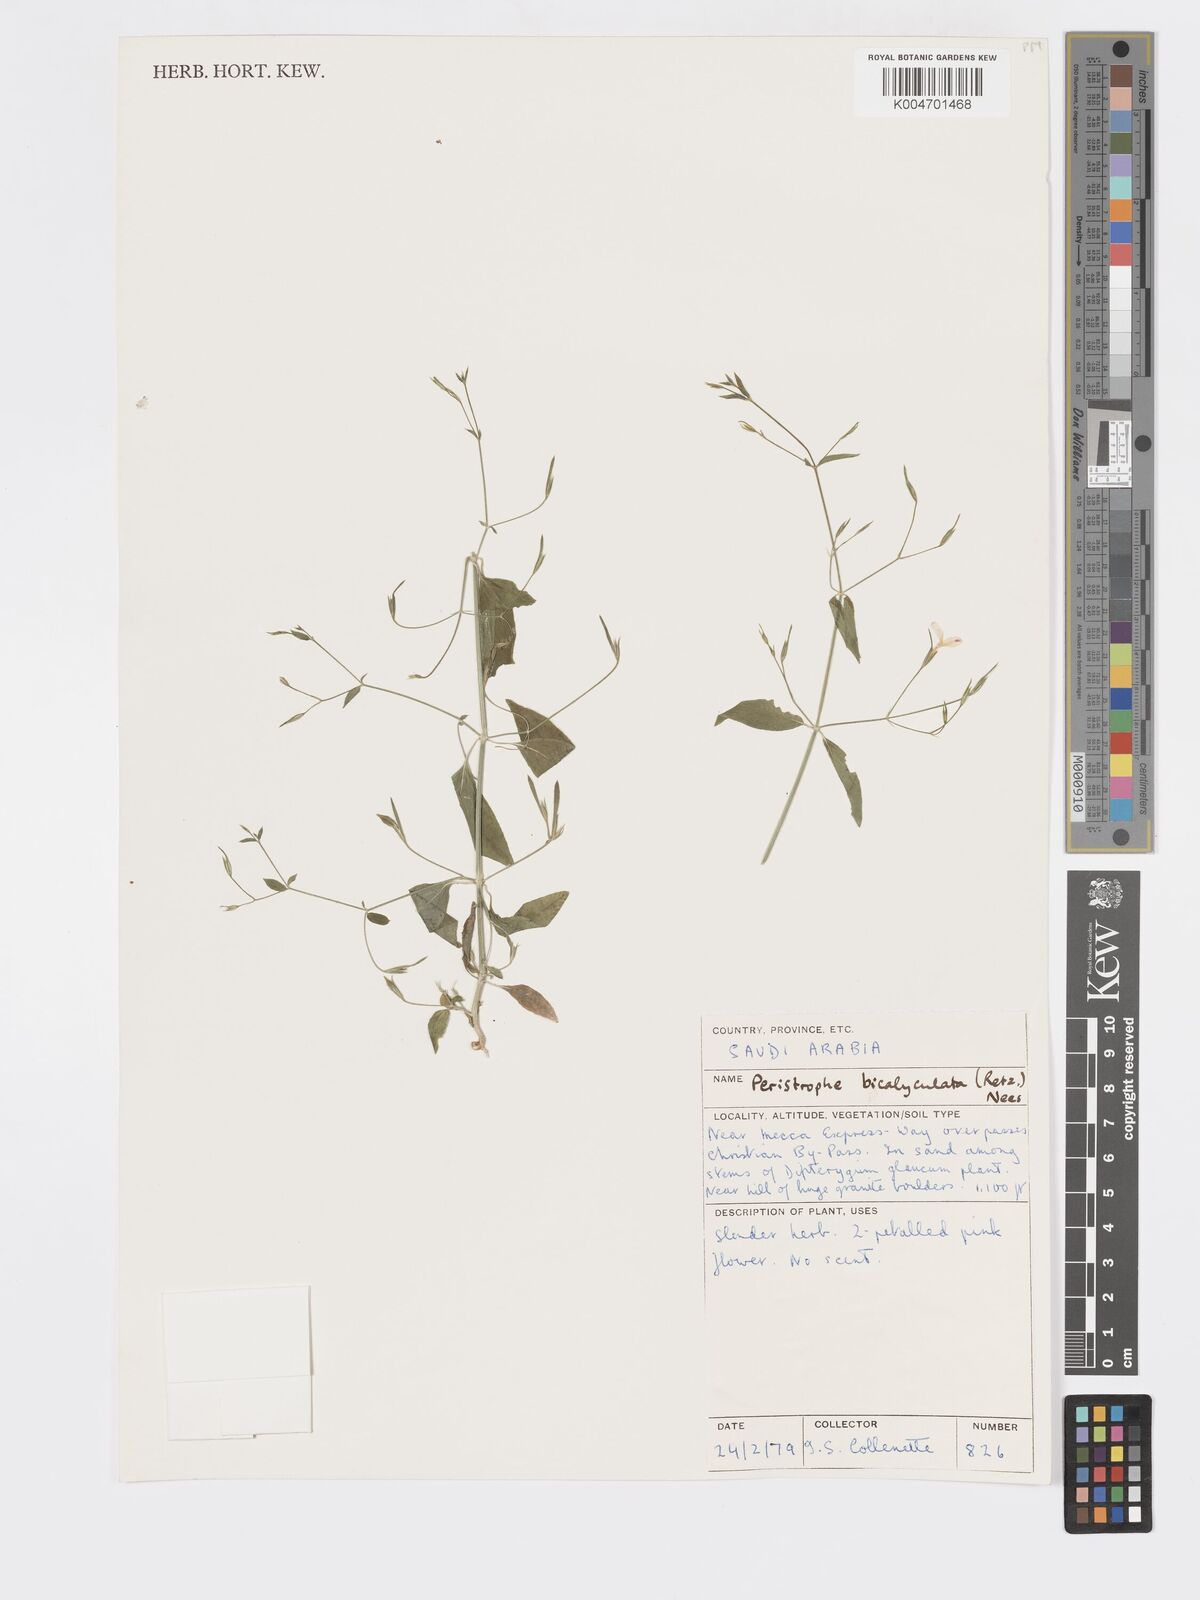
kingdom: Plantae
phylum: Tracheophyta
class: Magnoliopsida
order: Lamiales
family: Acanthaceae
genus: Dicliptera
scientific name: Dicliptera paniculata
